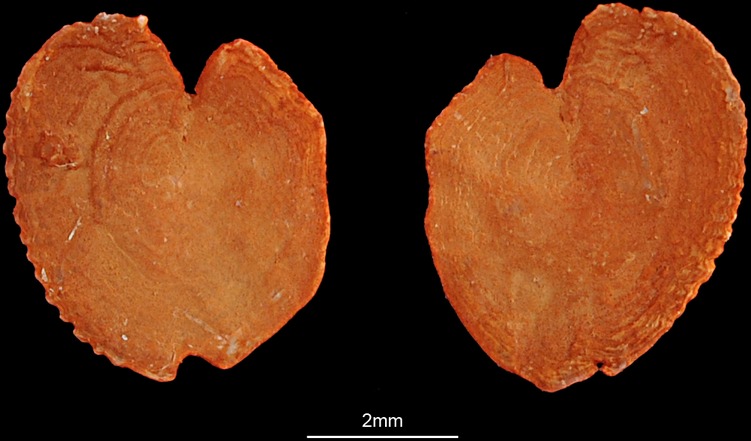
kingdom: Animalia
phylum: Chordata
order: Perciformes
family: Cichlidae
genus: Symphysodon
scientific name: Symphysodon aequifasciatus
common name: Blue discus
